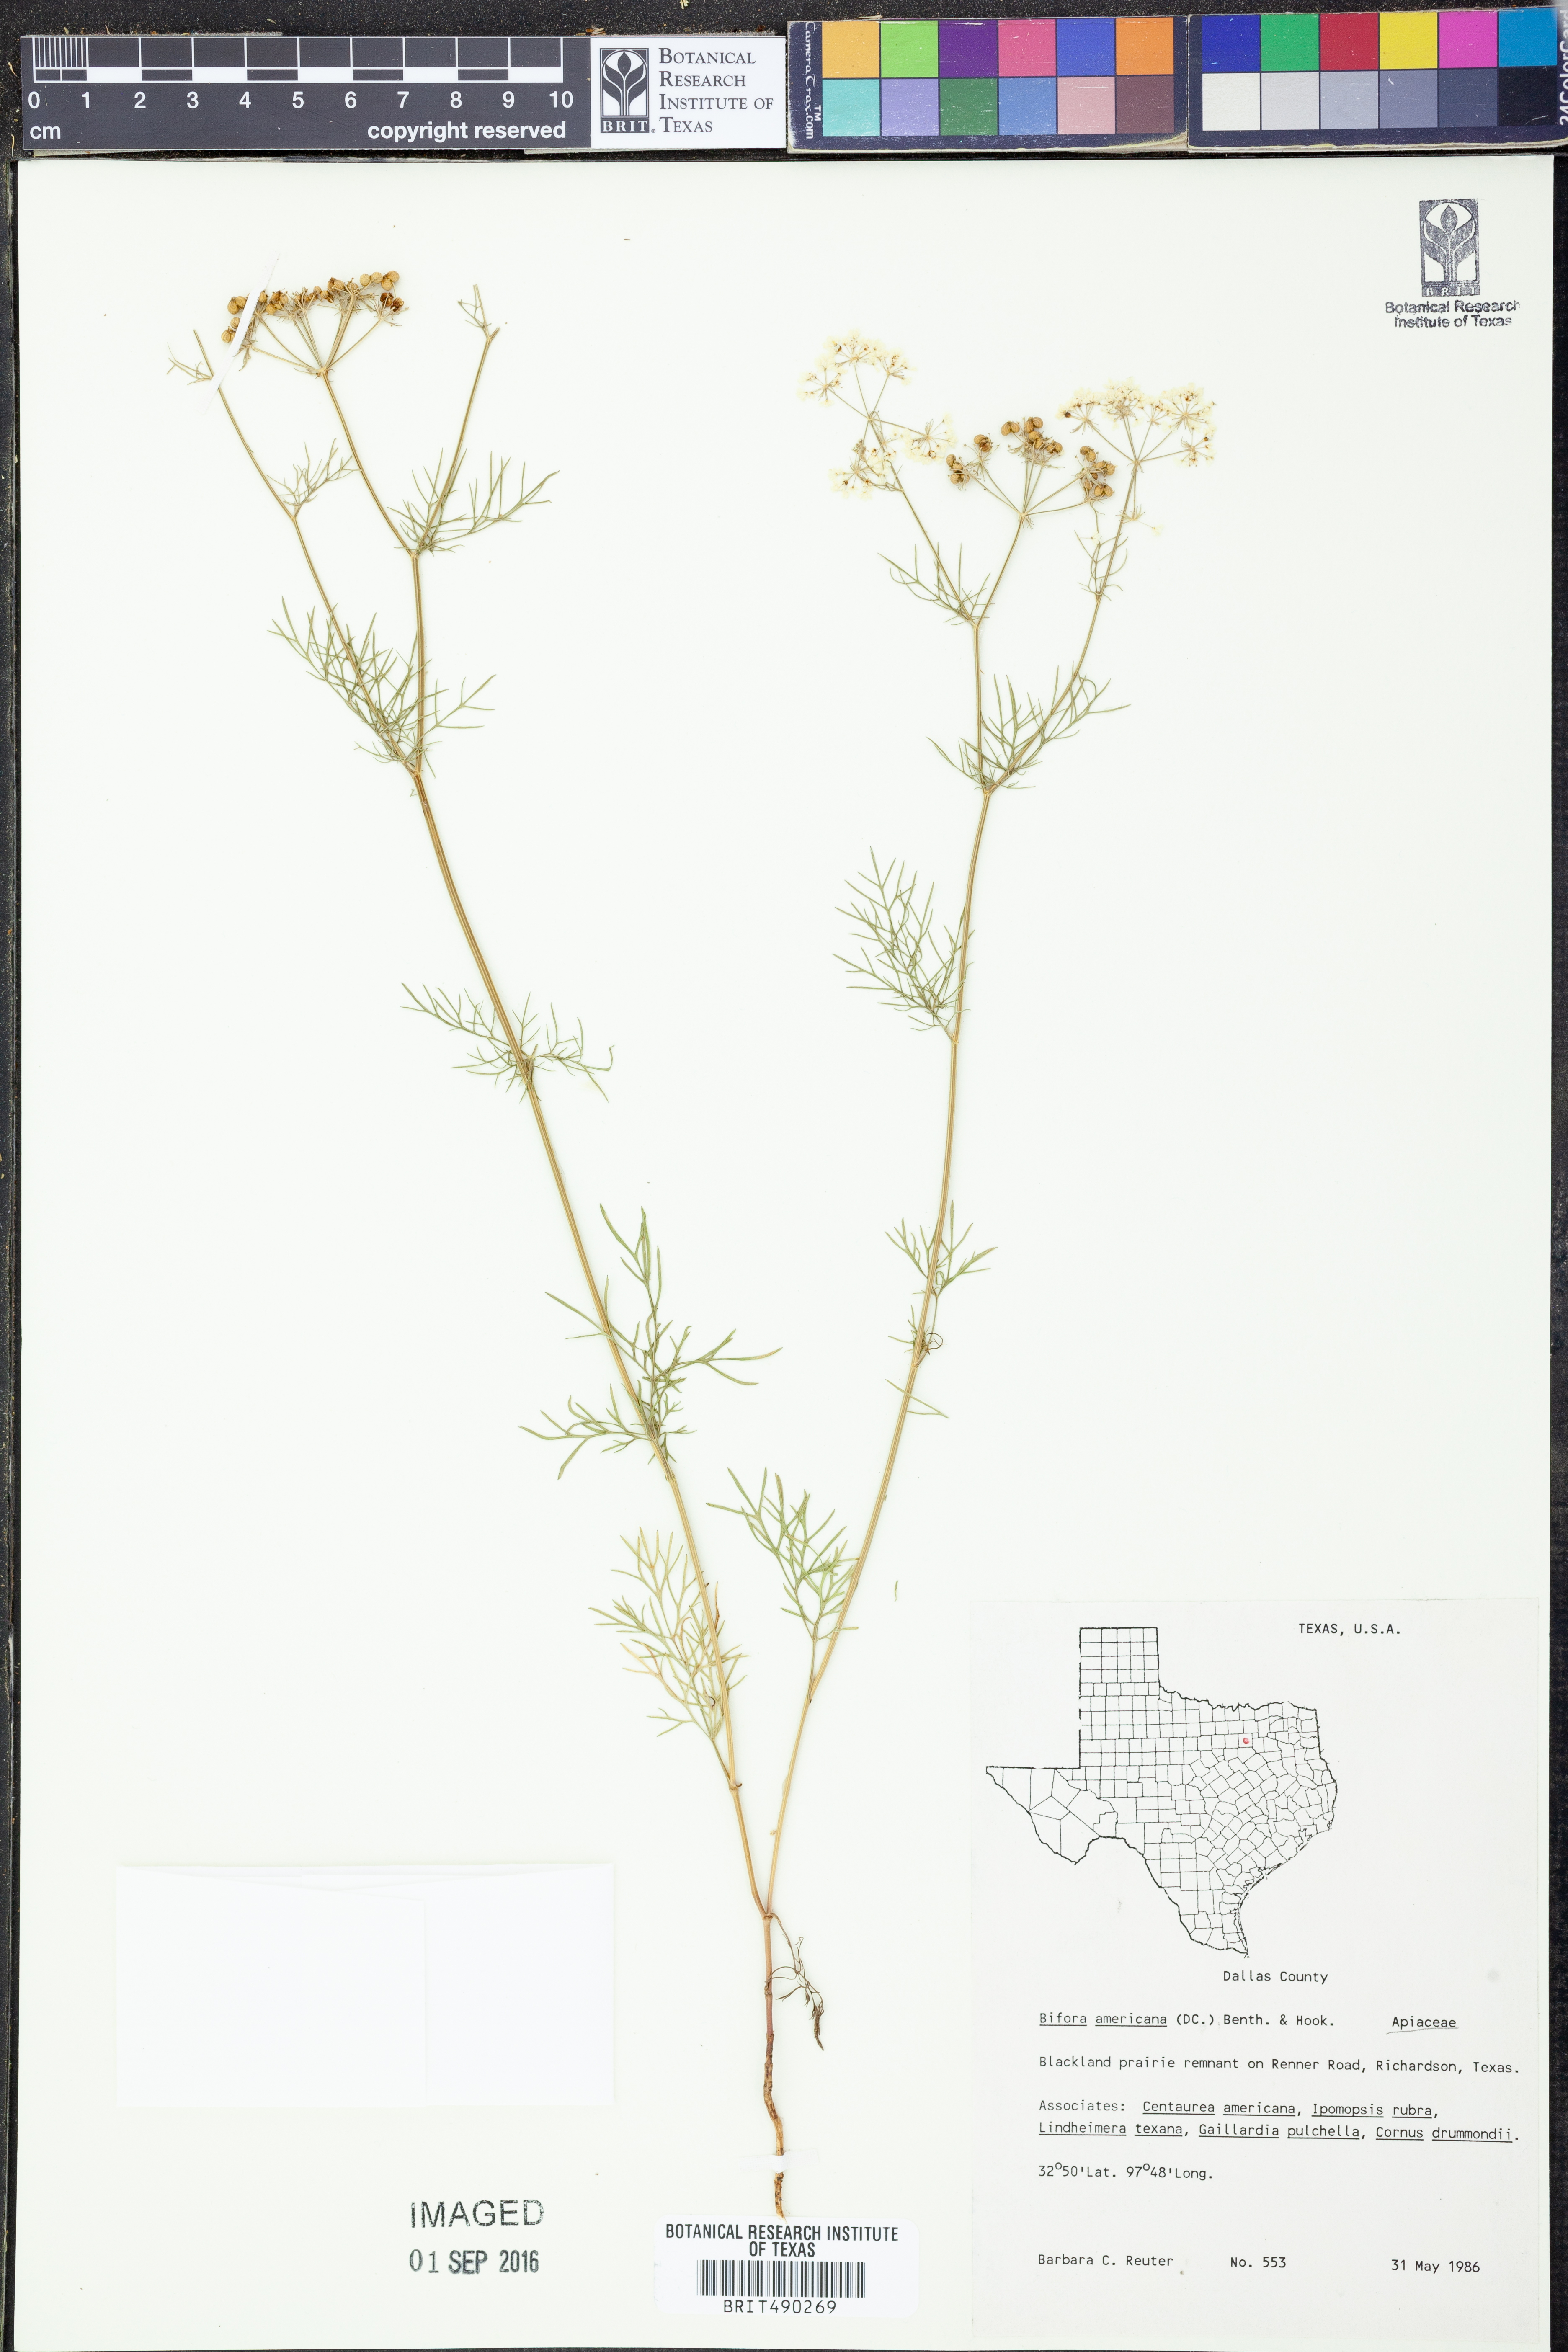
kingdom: Plantae
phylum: Tracheophyta
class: Magnoliopsida
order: Apiales
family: Apiaceae
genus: Atrema
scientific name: Atrema americanum
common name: Prairie-bishop
